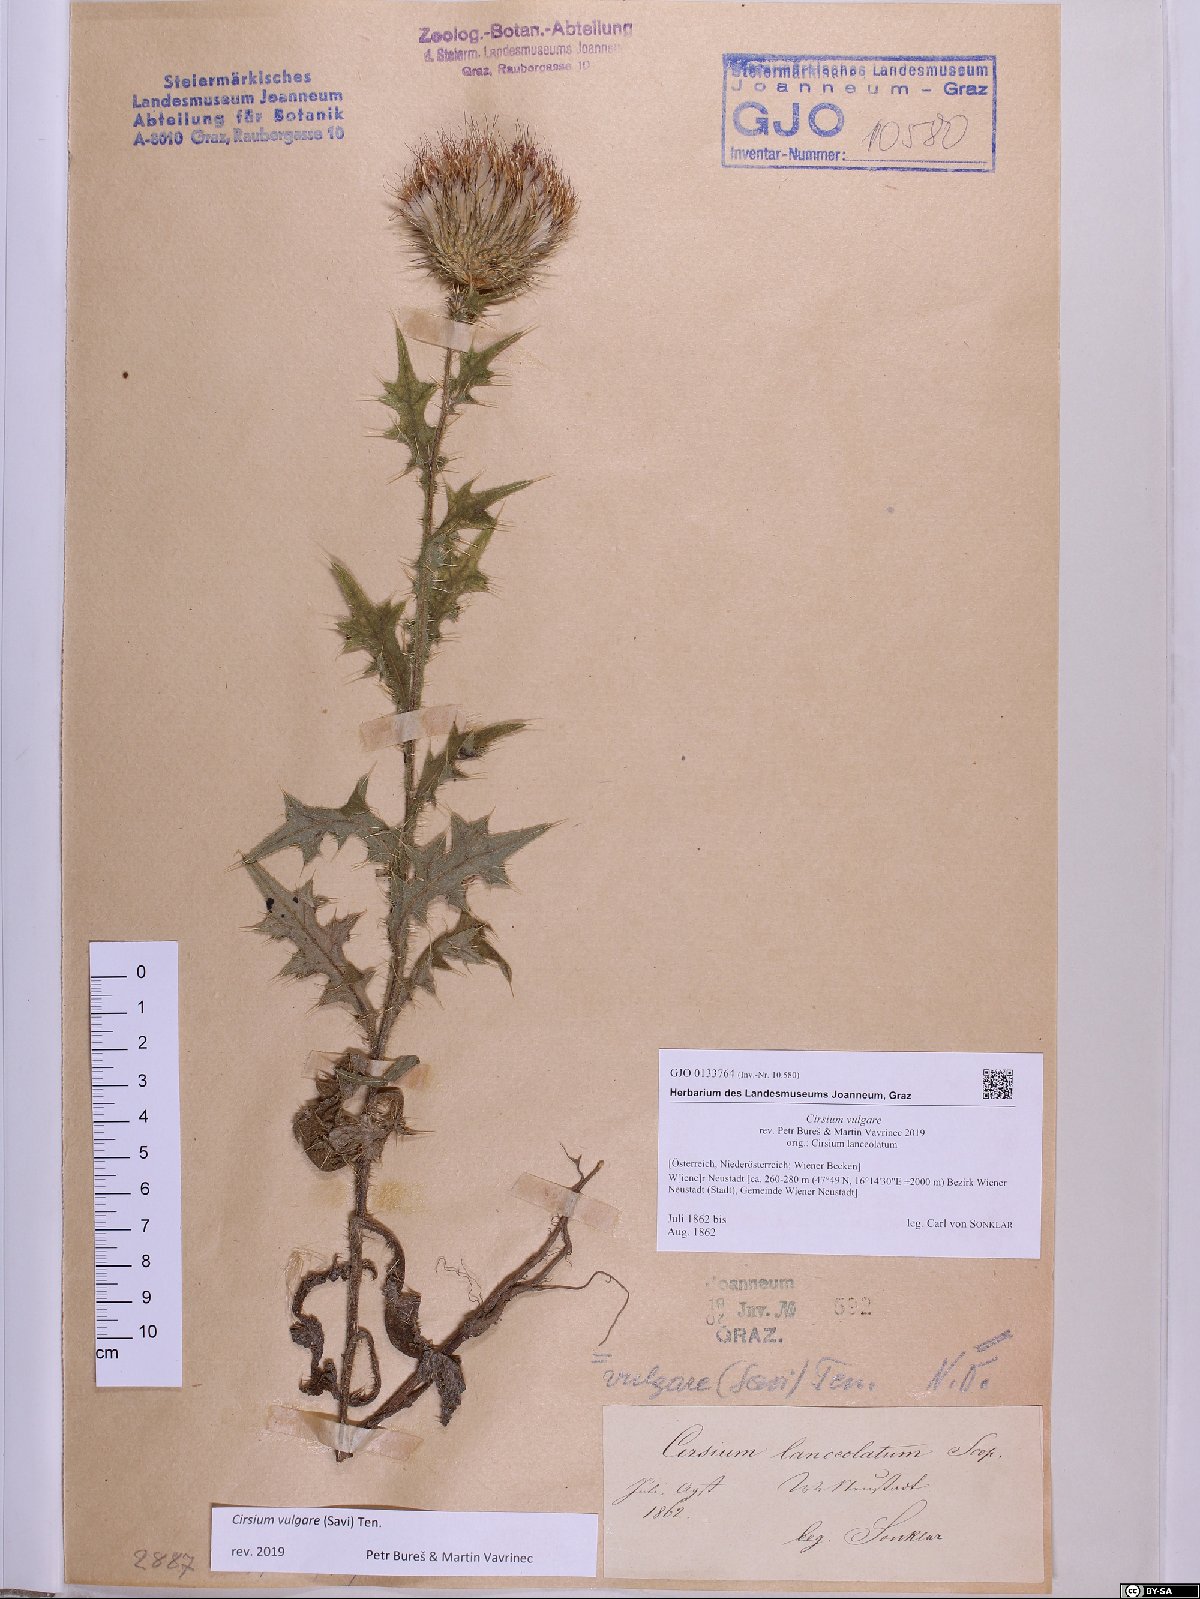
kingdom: Plantae
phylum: Tracheophyta
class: Magnoliopsida
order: Asterales
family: Asteraceae
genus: Cirsium
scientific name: Cirsium vulgare
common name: Bull thistle
